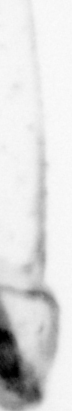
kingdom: Animalia
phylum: Arthropoda
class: Copepoda
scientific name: Copepoda
